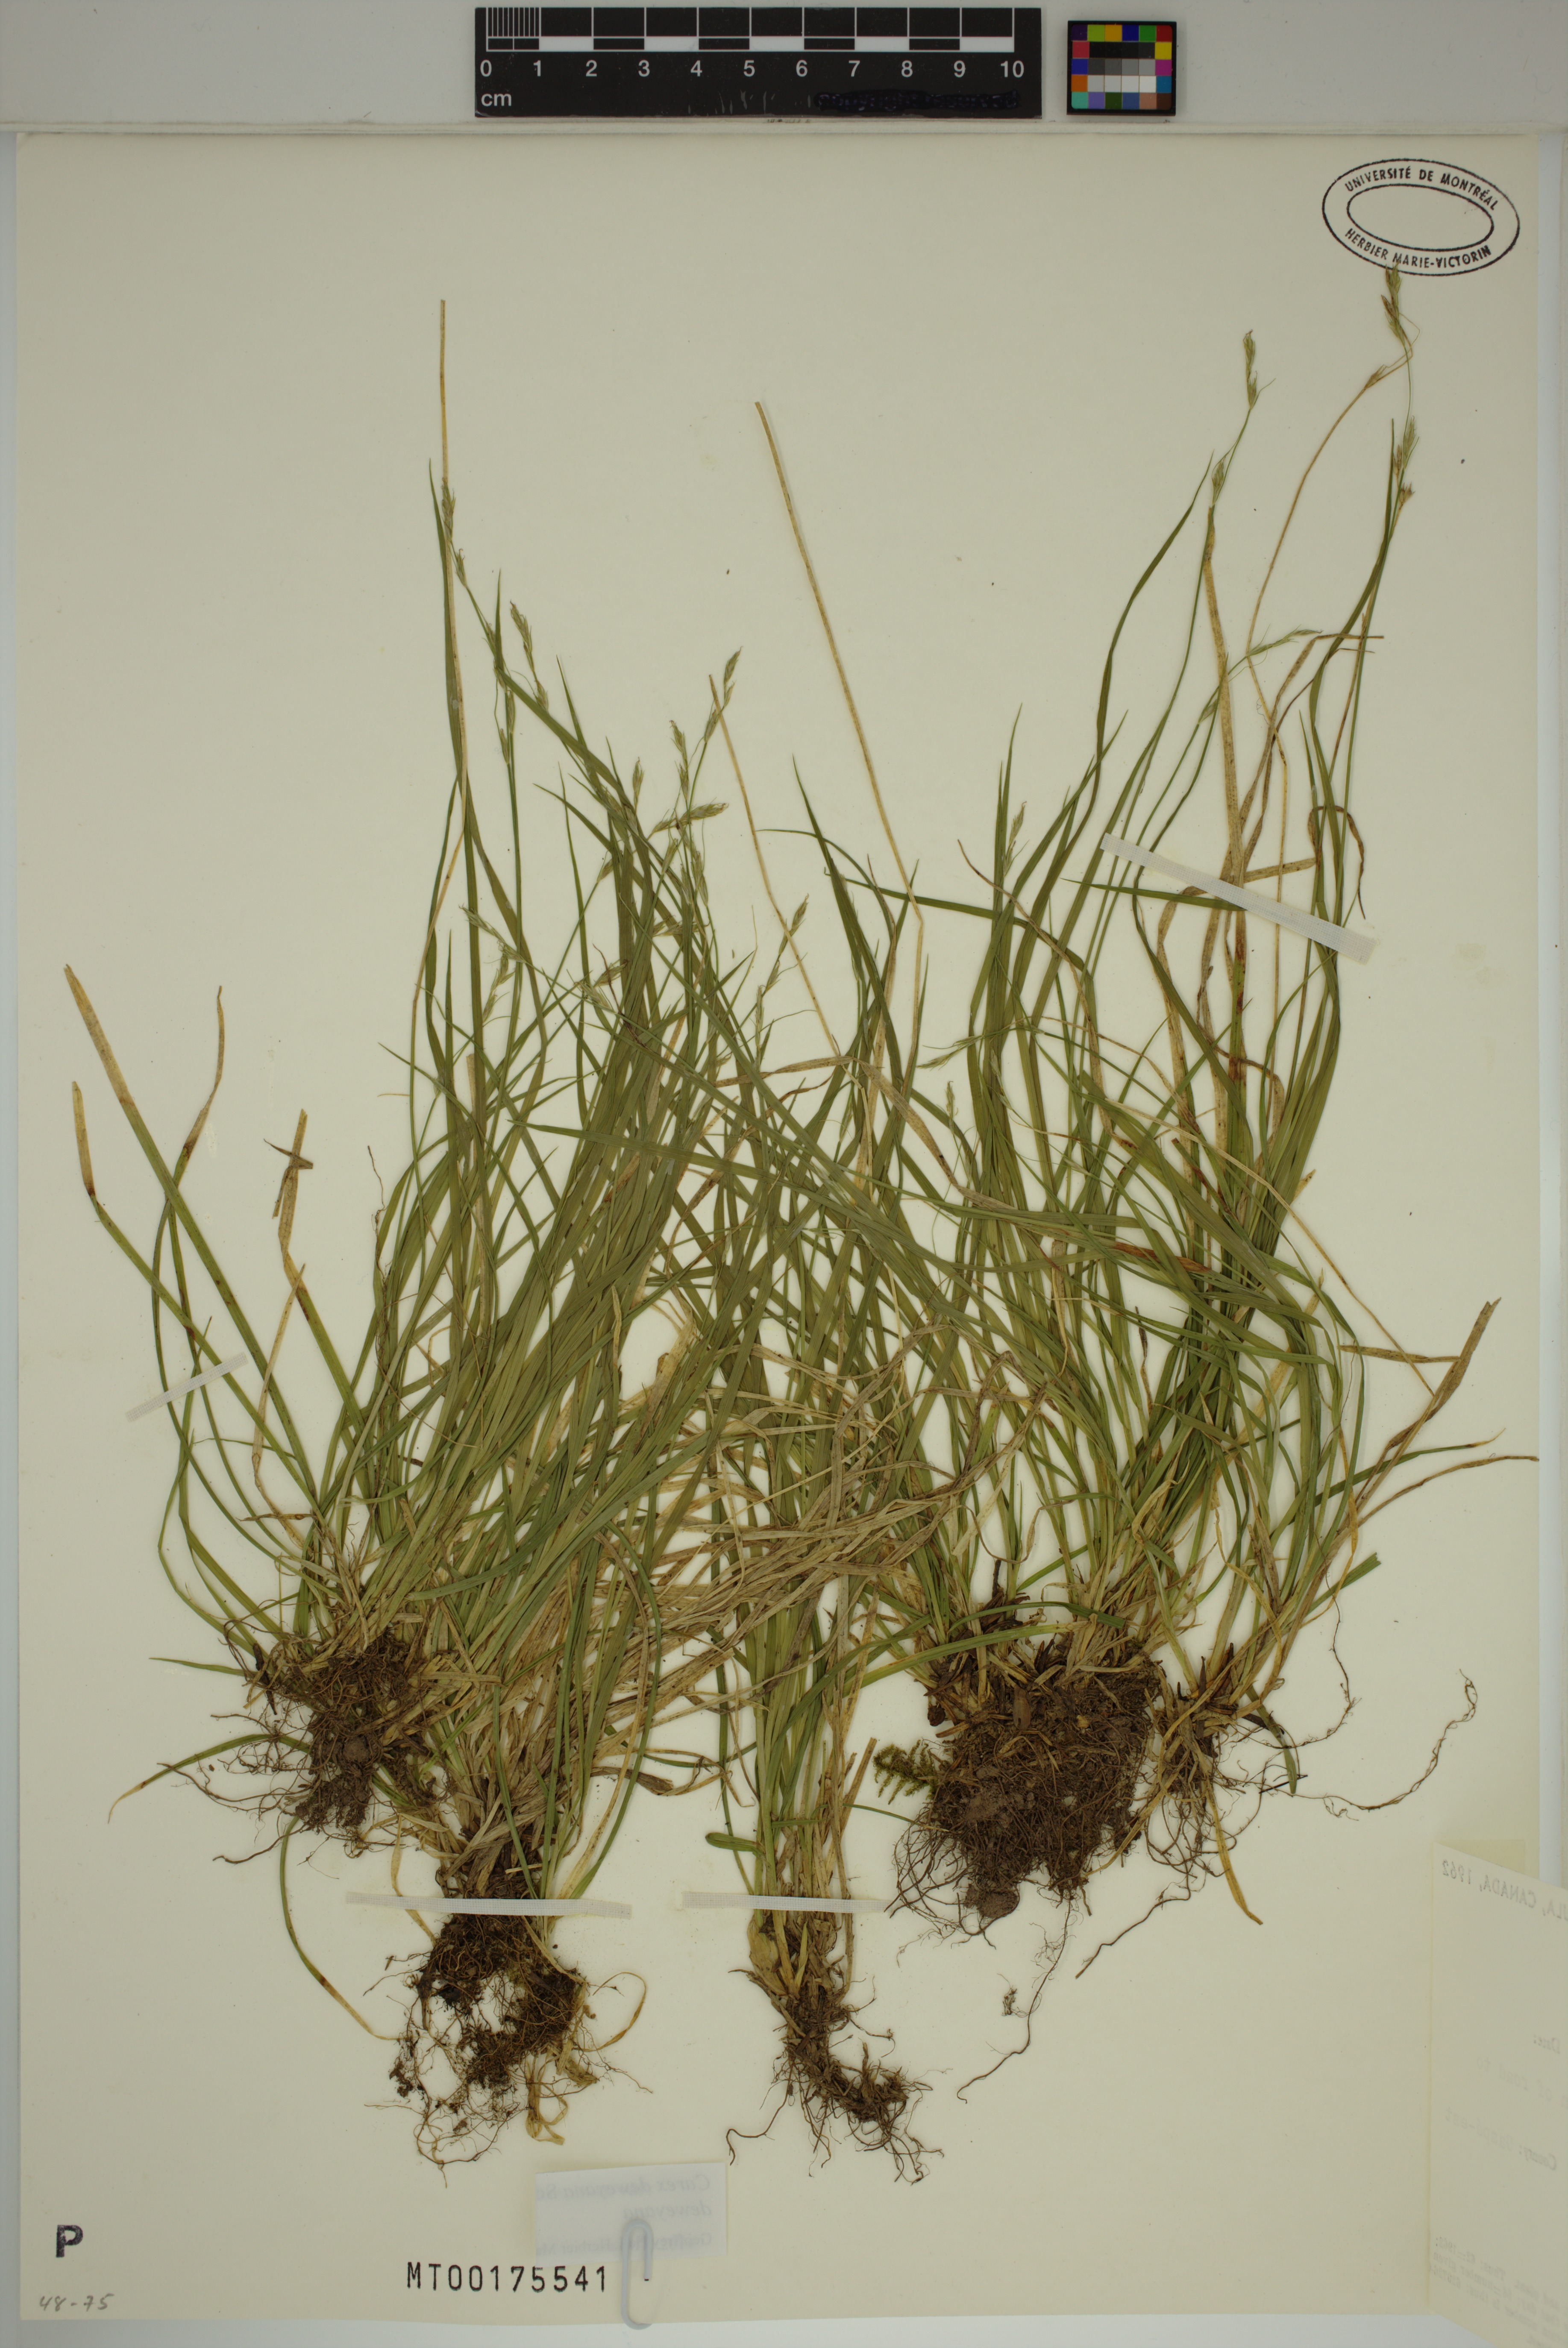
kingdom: Plantae
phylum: Tracheophyta
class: Liliopsida
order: Poales
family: Cyperaceae
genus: Carex
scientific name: Carex deweyana
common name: Dewey's sedge
